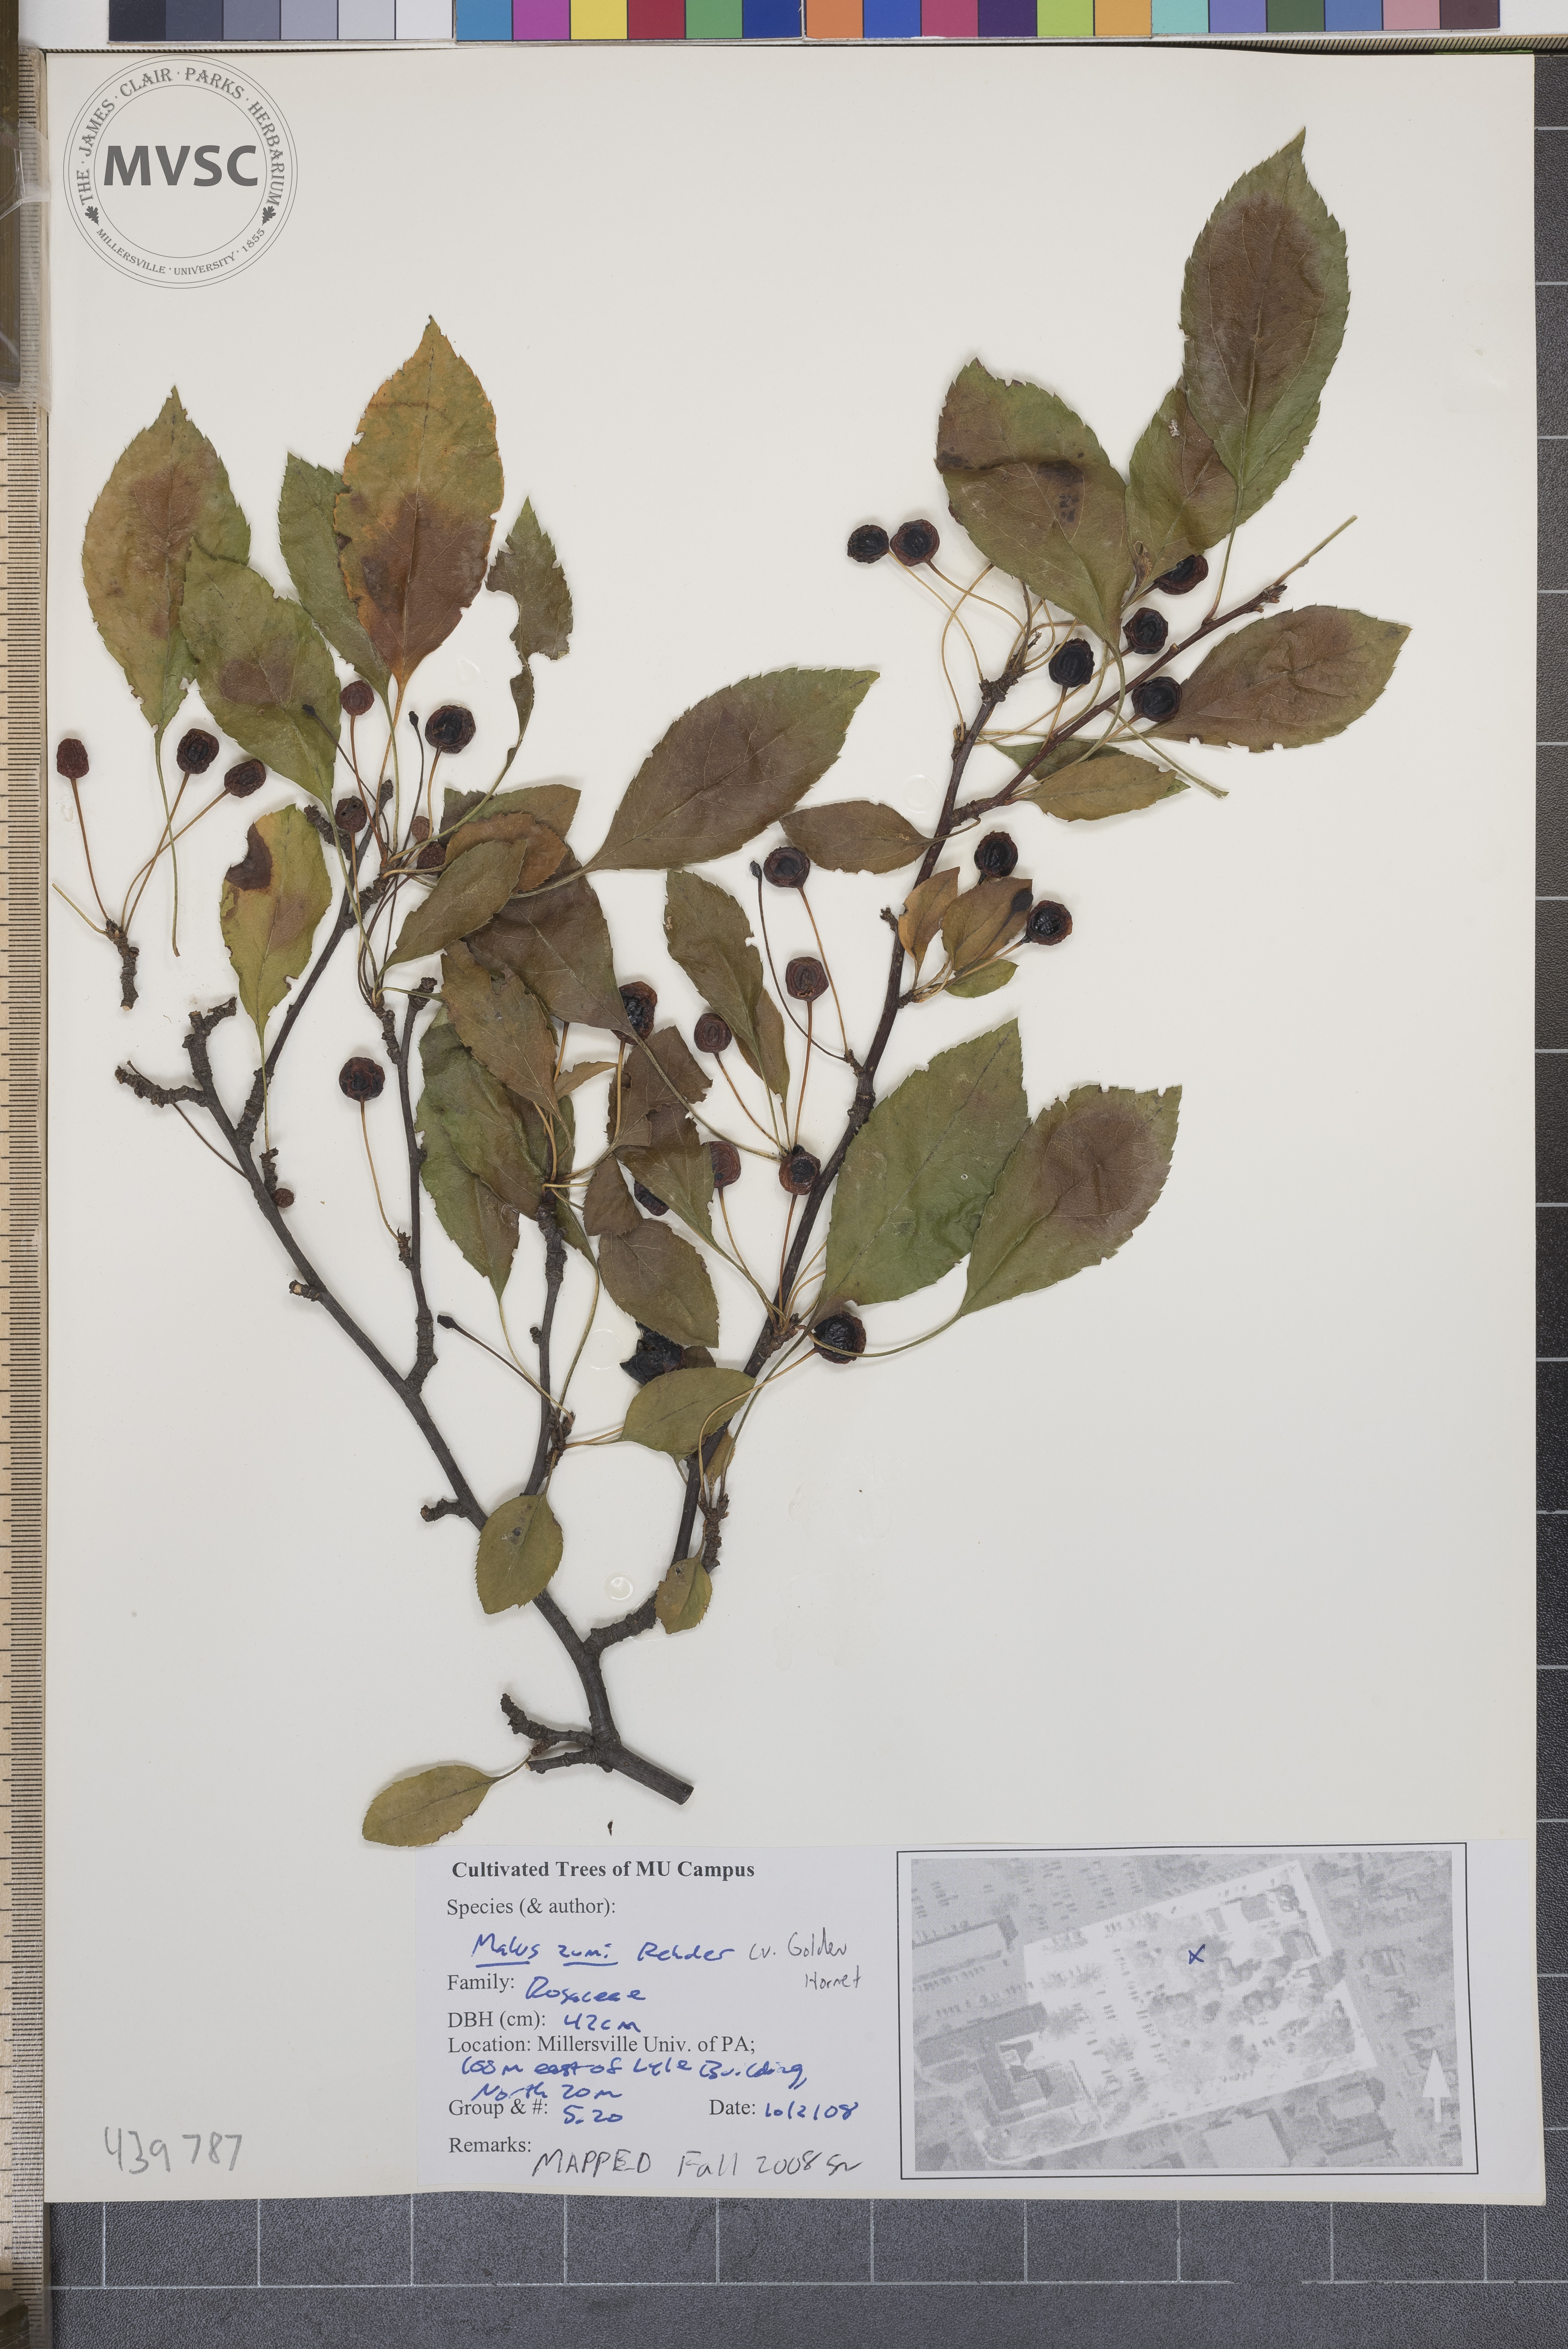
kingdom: Plantae
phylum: Tracheophyta
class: Magnoliopsida
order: Rosales
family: Rosaceae
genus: Malus
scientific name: Malus zumi
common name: O-zumi
